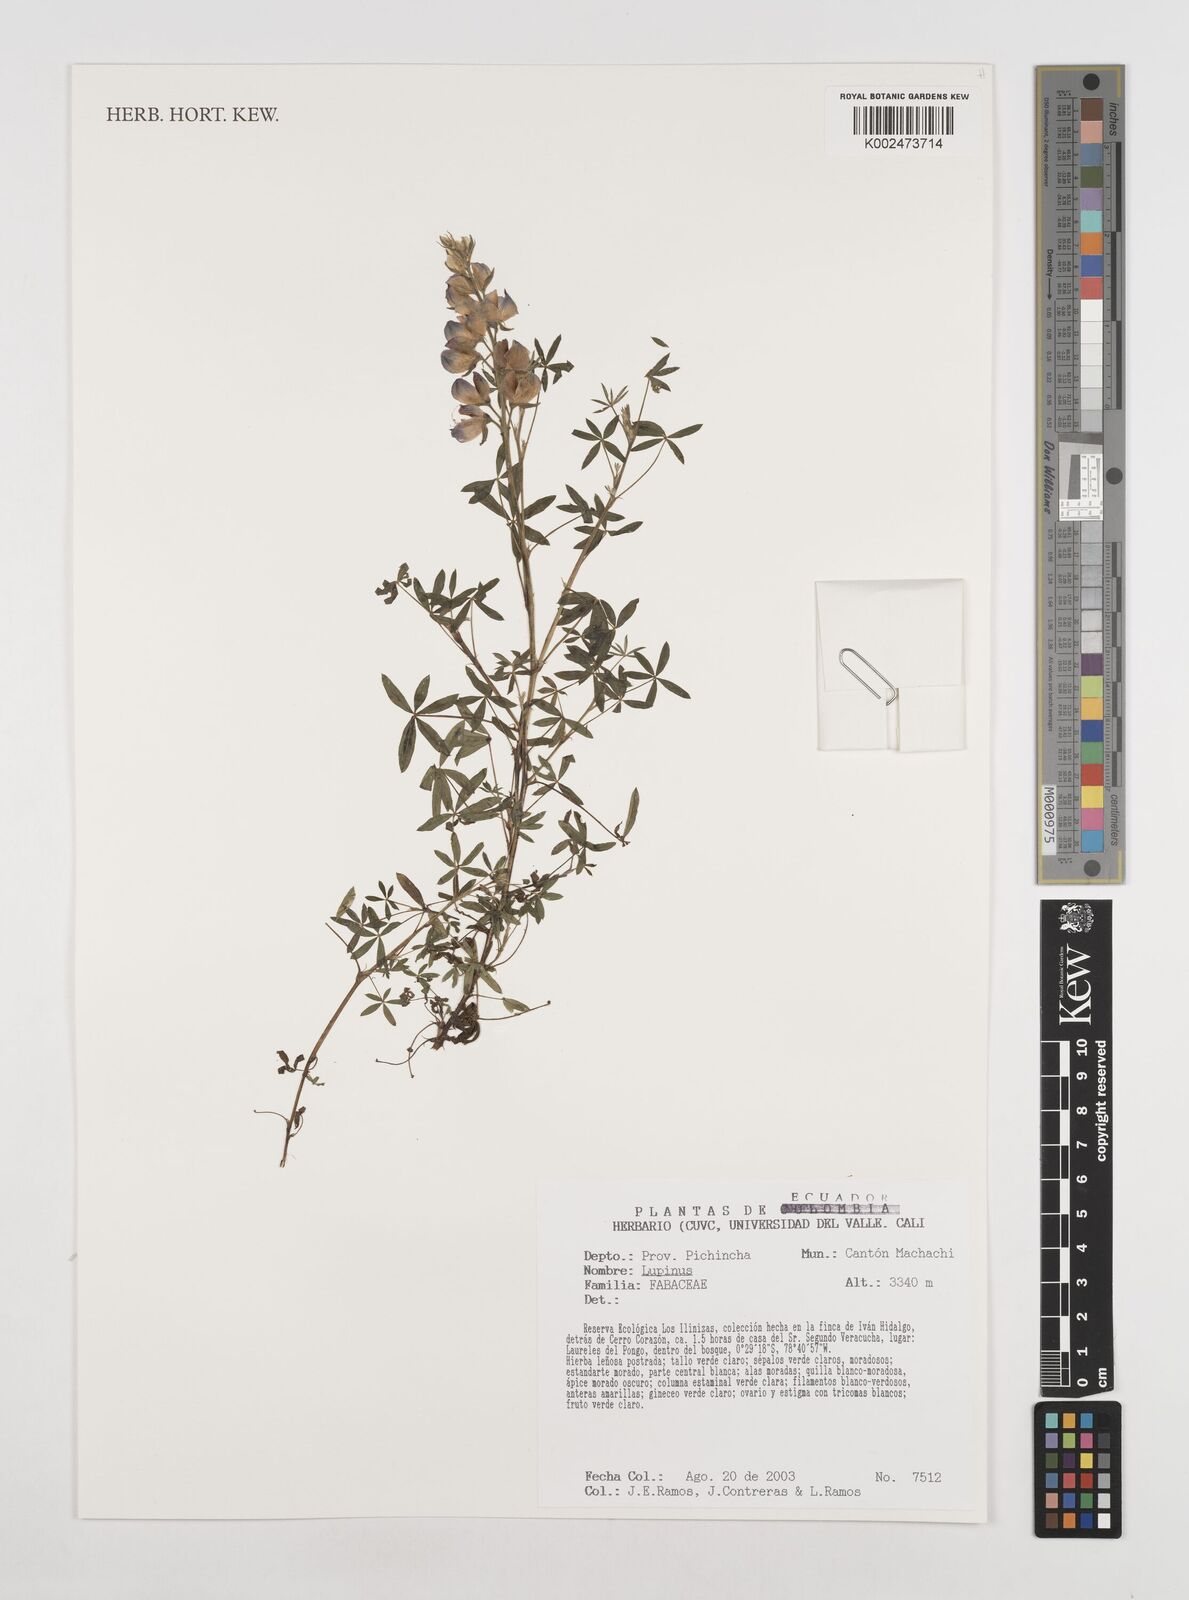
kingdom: Plantae
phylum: Tracheophyta
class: Magnoliopsida
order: Fabales
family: Fabaceae
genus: Lupinus
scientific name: Lupinus
